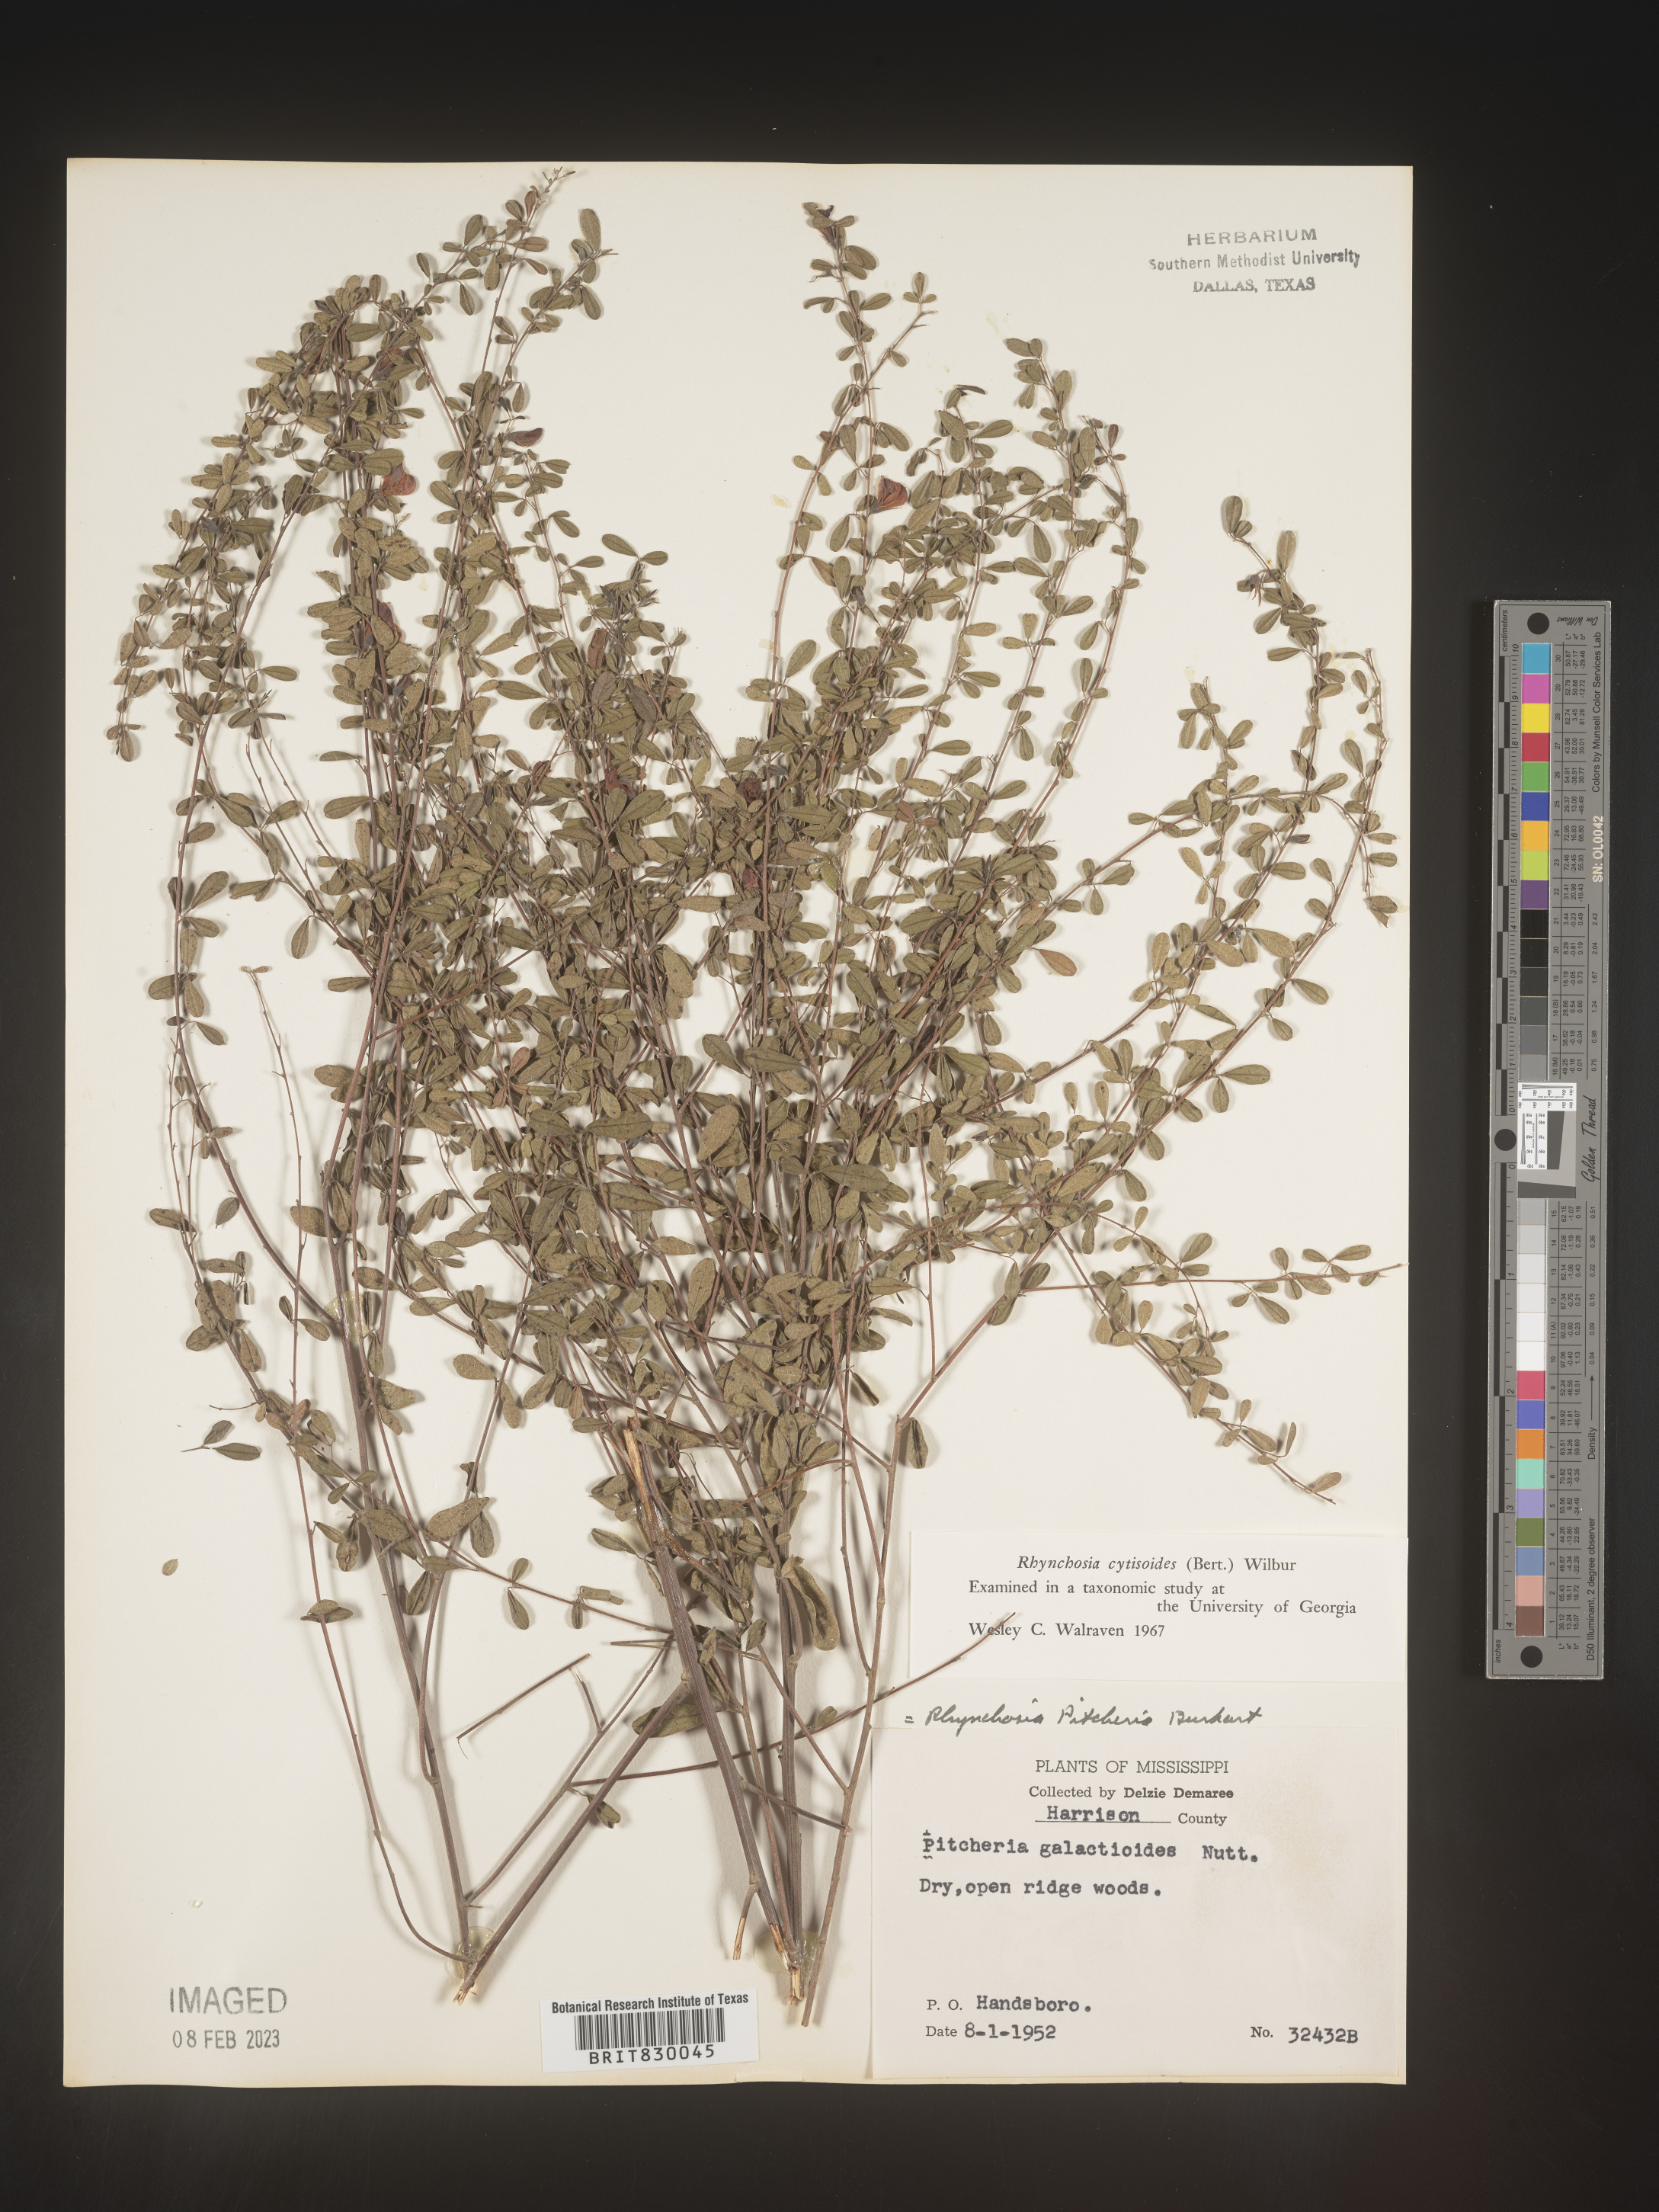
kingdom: Plantae
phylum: Tracheophyta
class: Magnoliopsida
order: Fabales
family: Fabaceae
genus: Rhynchosia
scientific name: Rhynchosia
